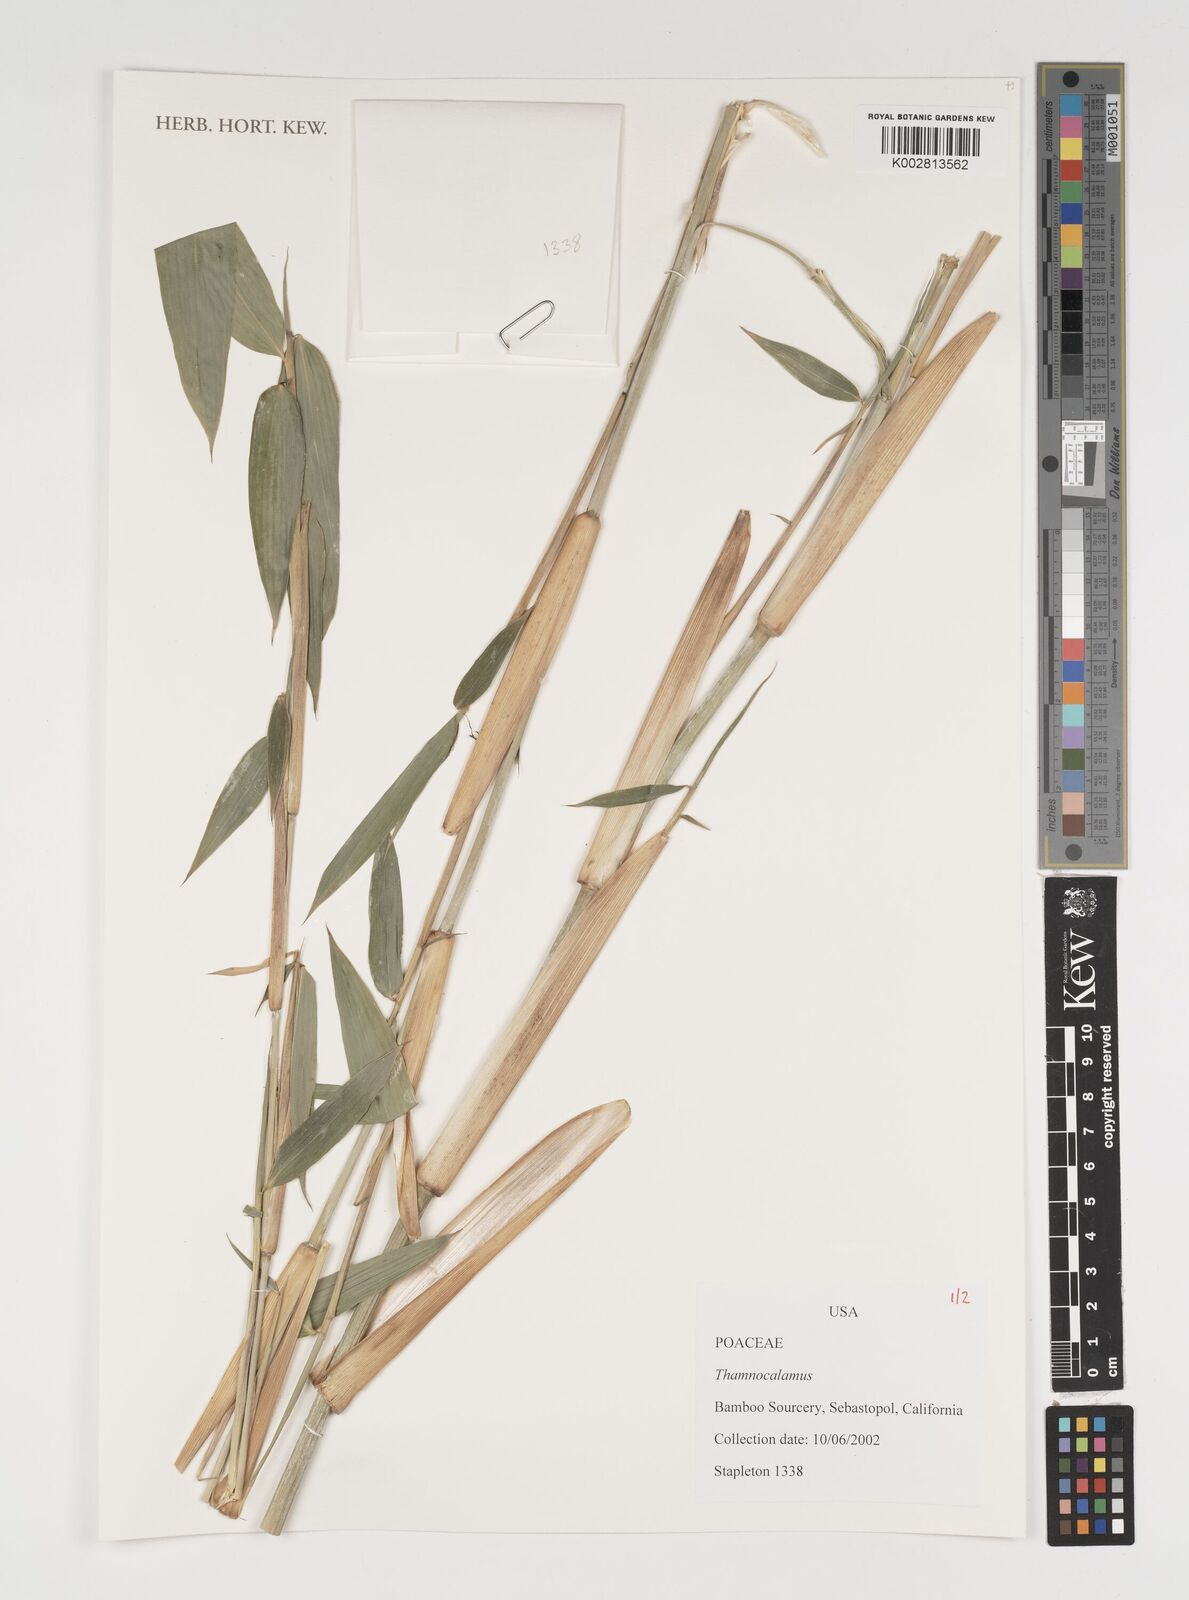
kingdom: Plantae
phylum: Tracheophyta
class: Liliopsida
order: Poales
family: Poaceae
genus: Thamnocalamus
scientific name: Thamnocalamus
